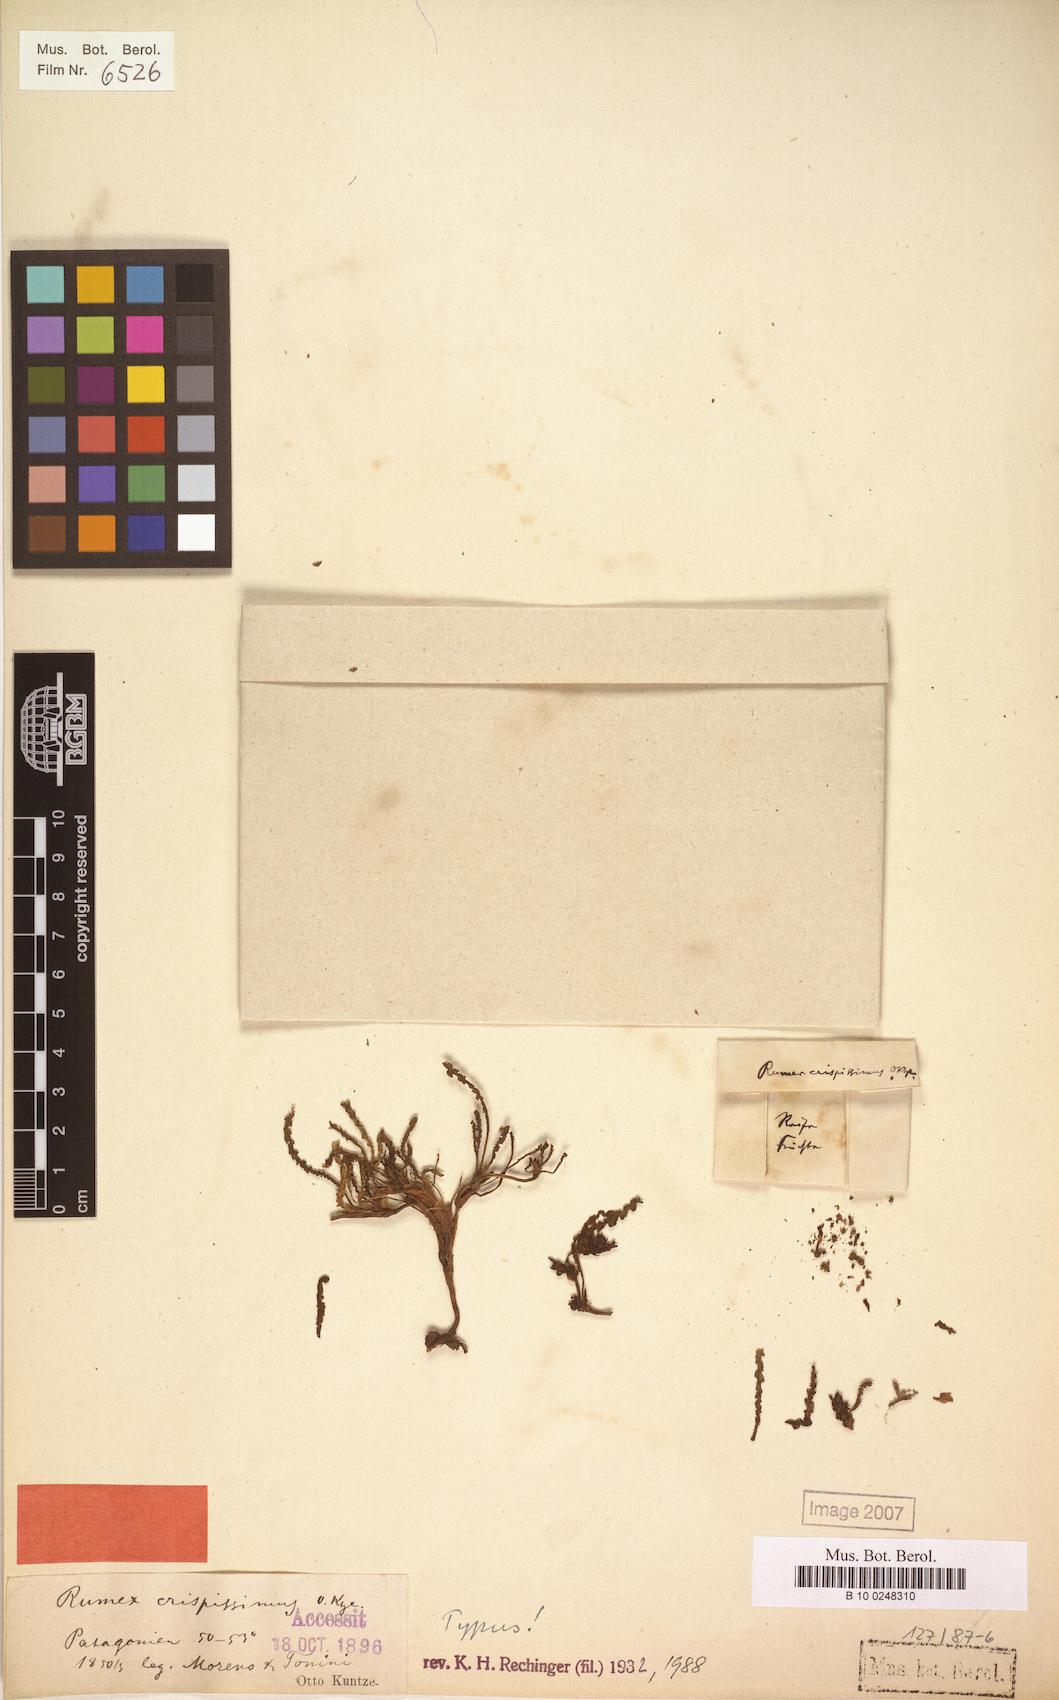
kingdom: Plantae
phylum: Tracheophyta
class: Magnoliopsida
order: Caryophyllales
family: Polygonaceae
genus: Rumex
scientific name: Rumex crispissimus
